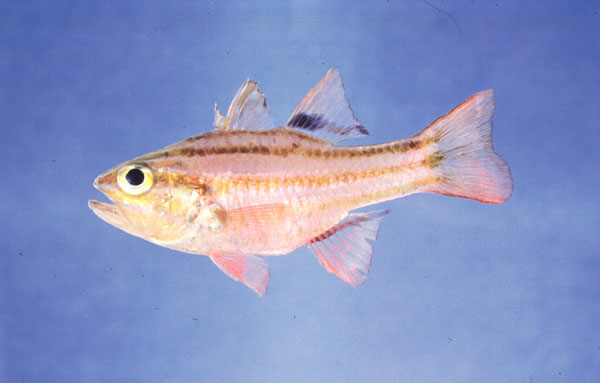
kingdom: Animalia
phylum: Chordata
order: Perciformes
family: Apogonidae
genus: Ostorhinchus
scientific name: Ostorhinchus taeniophorus
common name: Reef-flat cardinalfish
